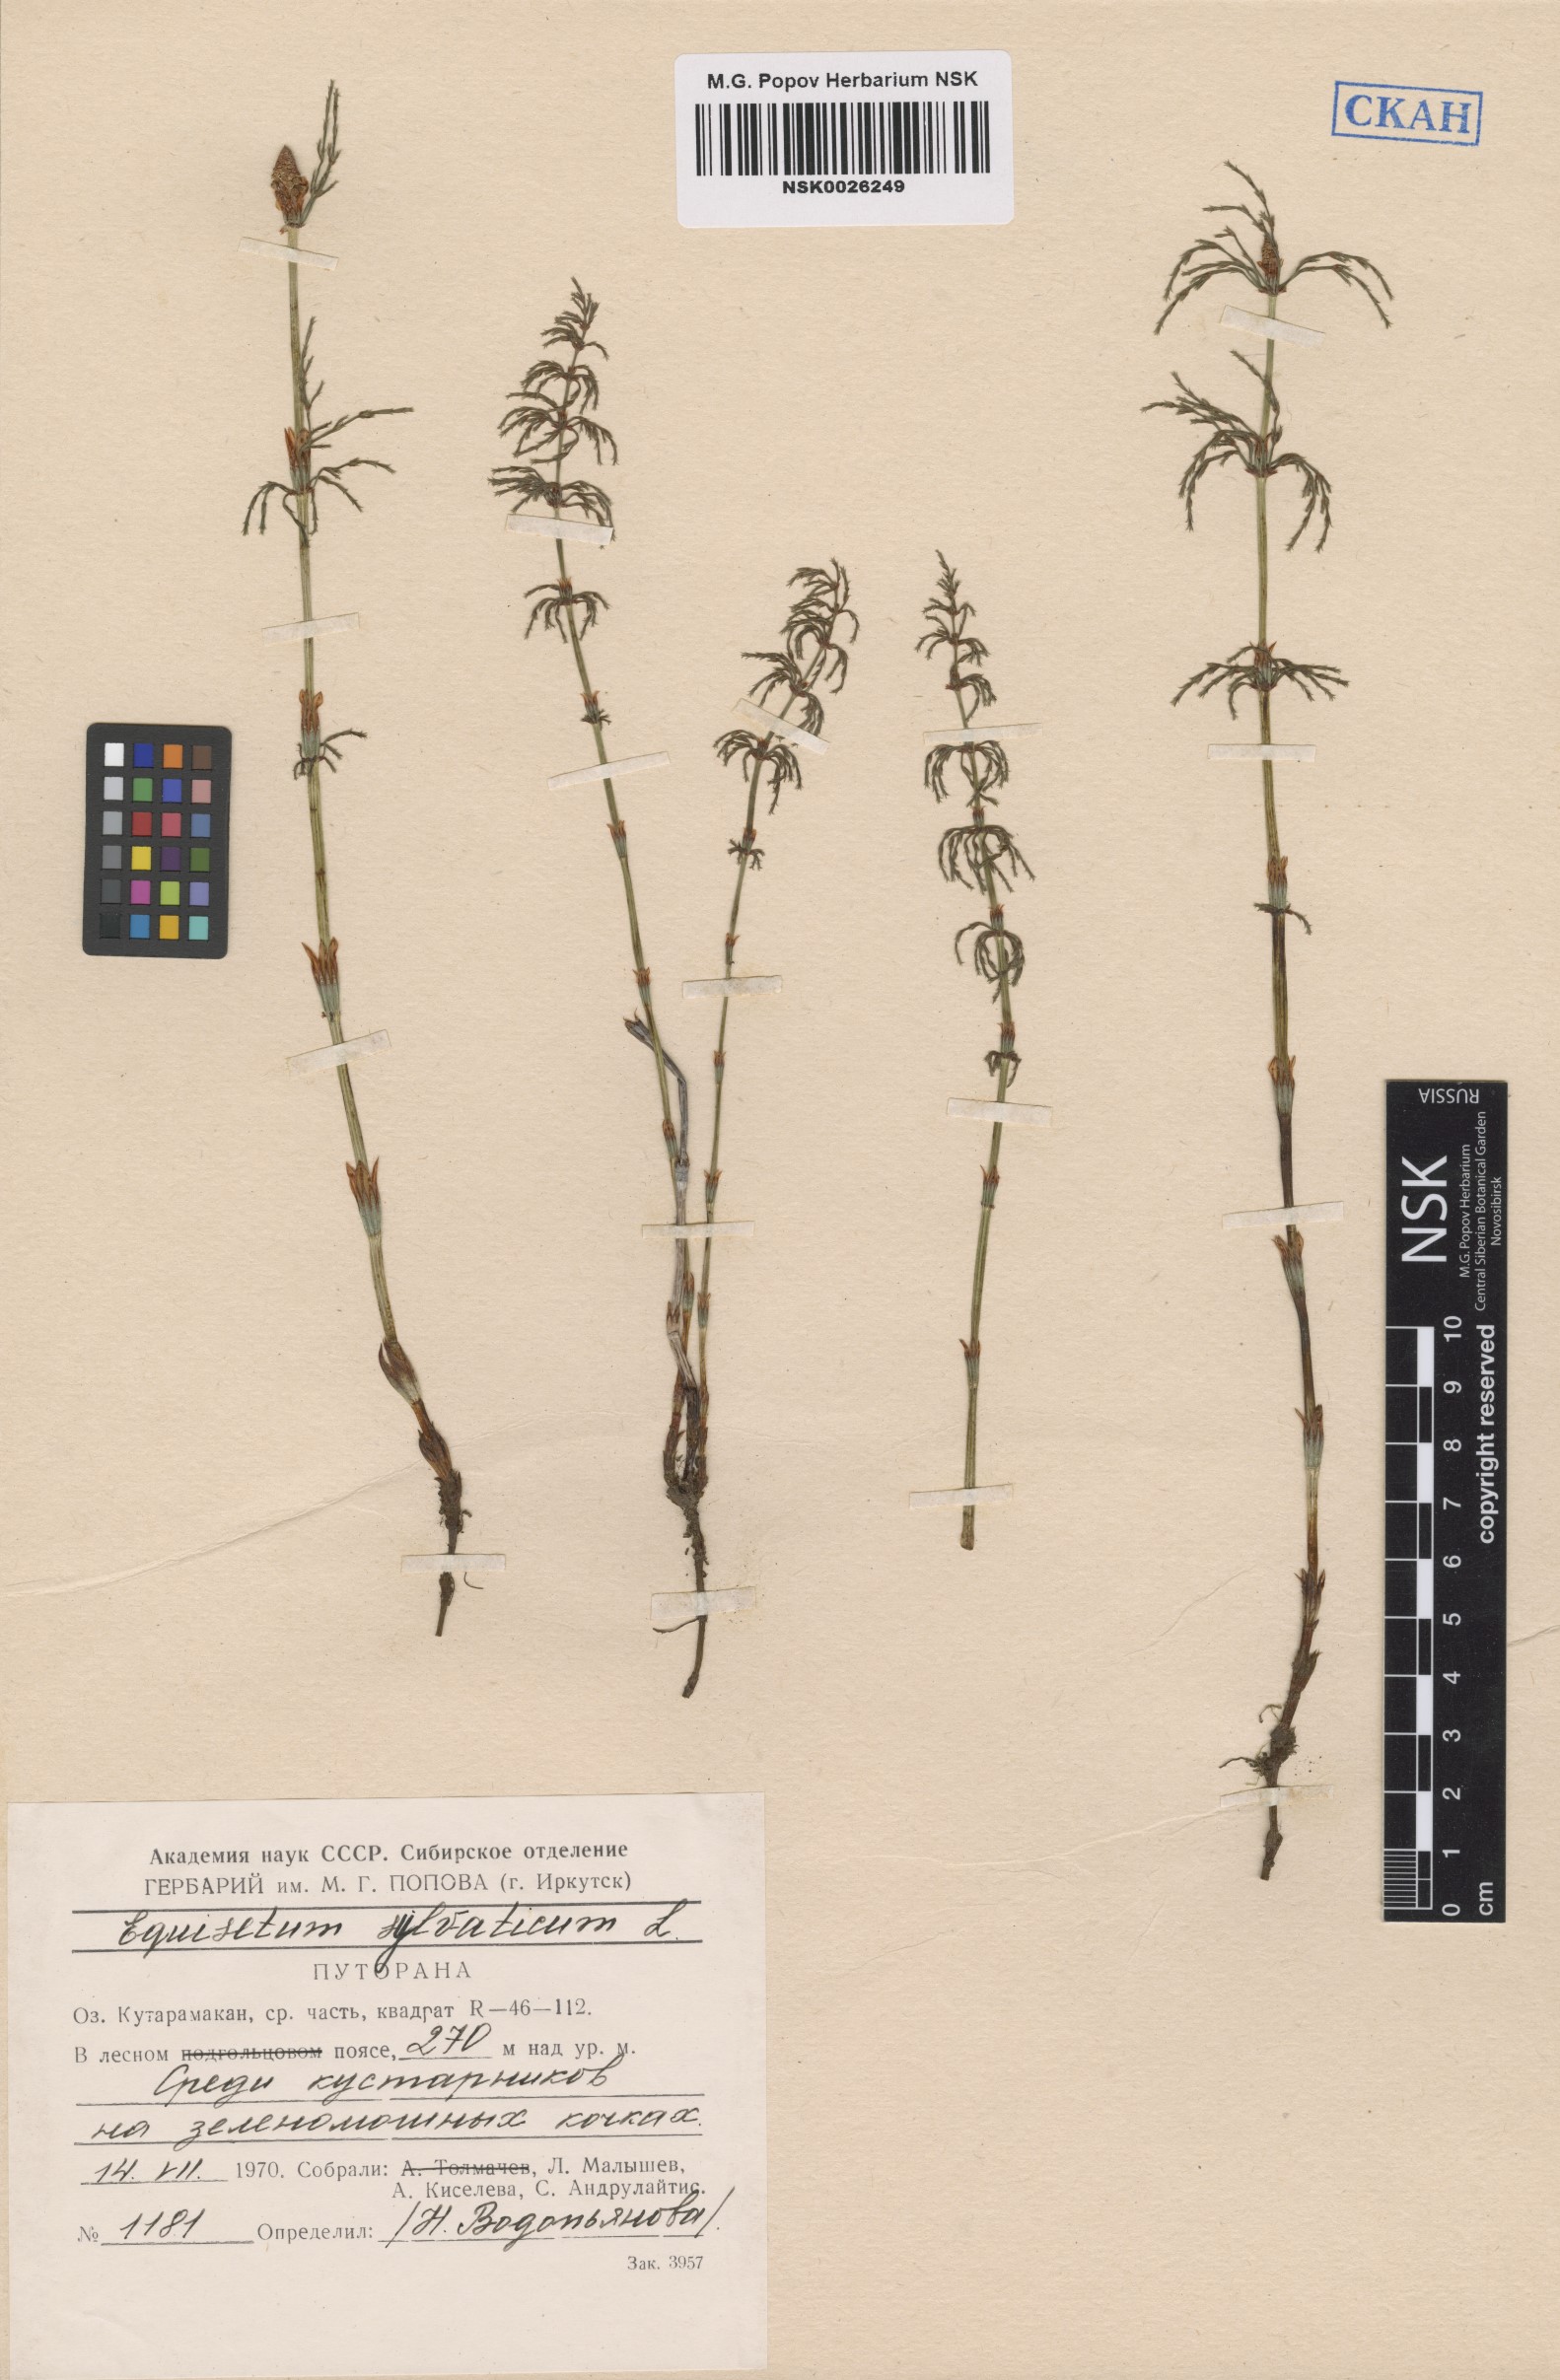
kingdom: Plantae
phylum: Tracheophyta
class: Polypodiopsida
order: Equisetales
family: Equisetaceae
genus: Equisetum
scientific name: Equisetum sylvaticum
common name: Wood horsetail
